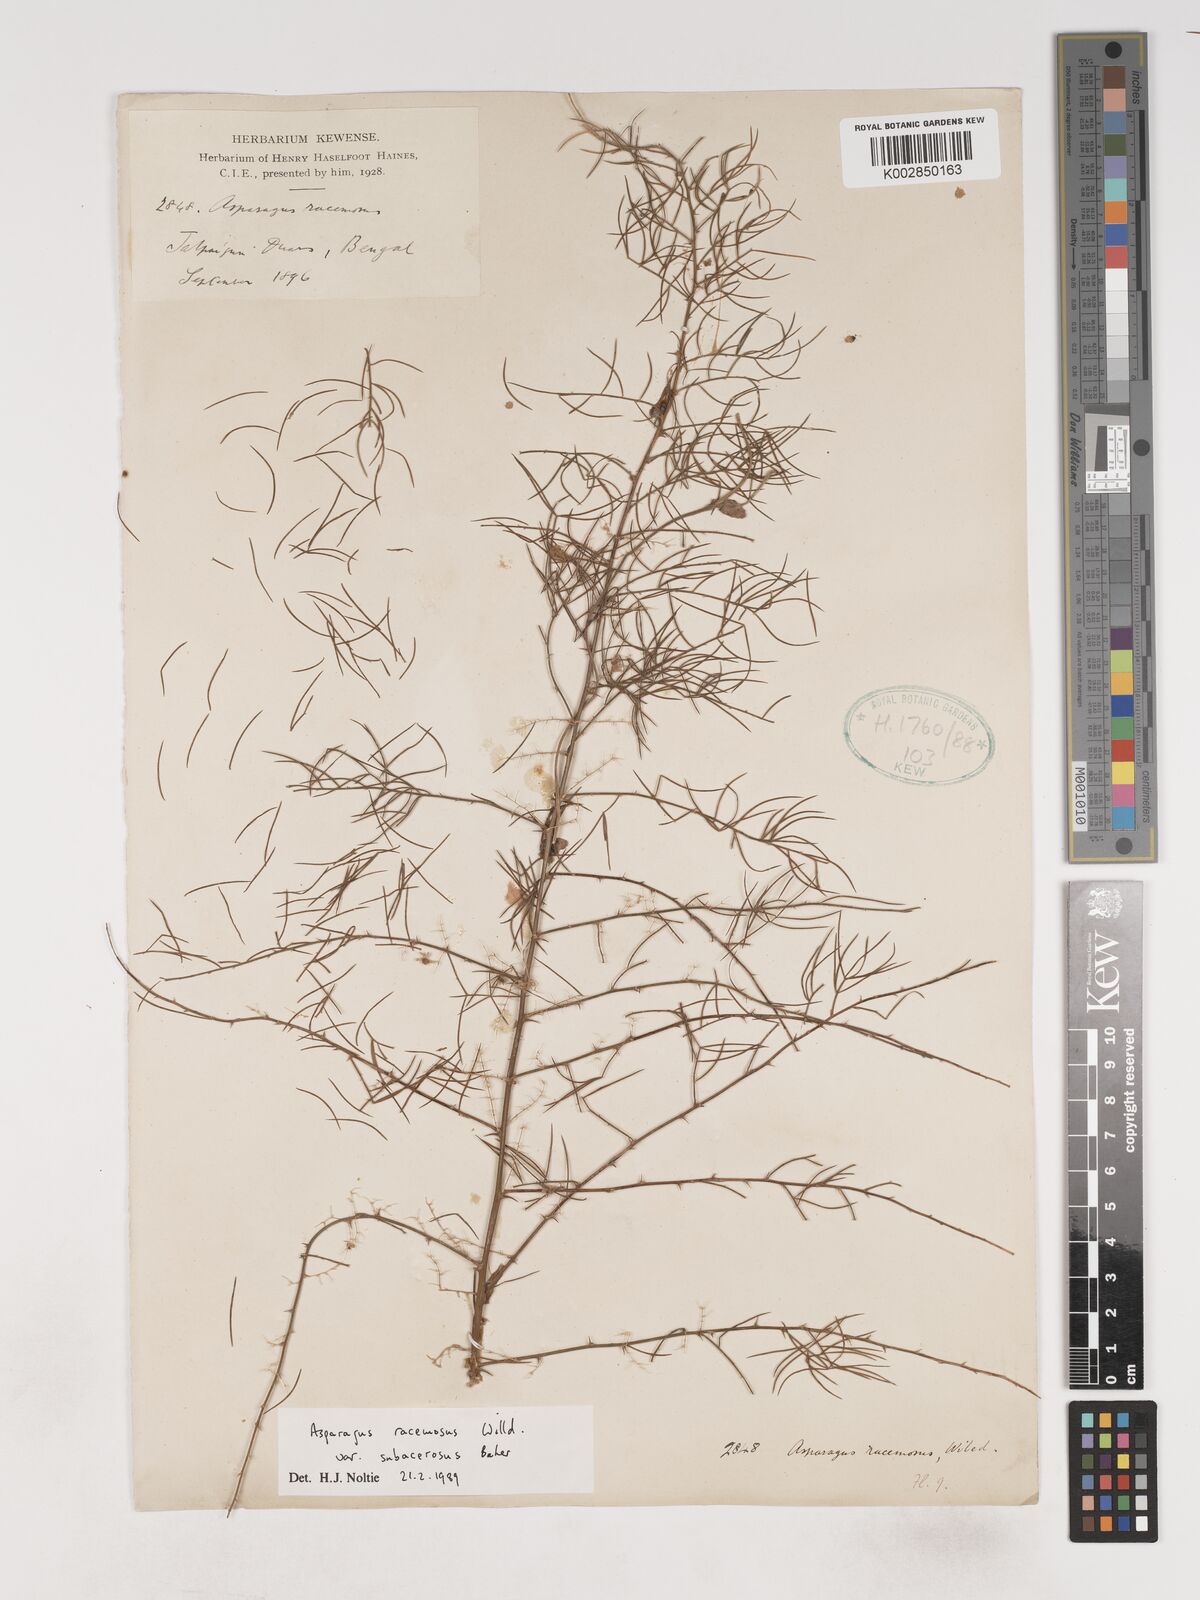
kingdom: Plantae
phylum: Tracheophyta
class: Liliopsida
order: Asparagales
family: Asparagaceae
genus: Asparagus
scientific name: Asparagus racemosus
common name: Asparagus-fern
